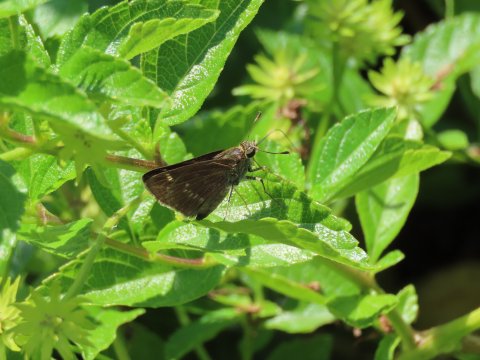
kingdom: Animalia
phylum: Arthropoda
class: Insecta
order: Lepidoptera
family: Hesperiidae
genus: Vernia
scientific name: Vernia verna
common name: Little Glassywing
